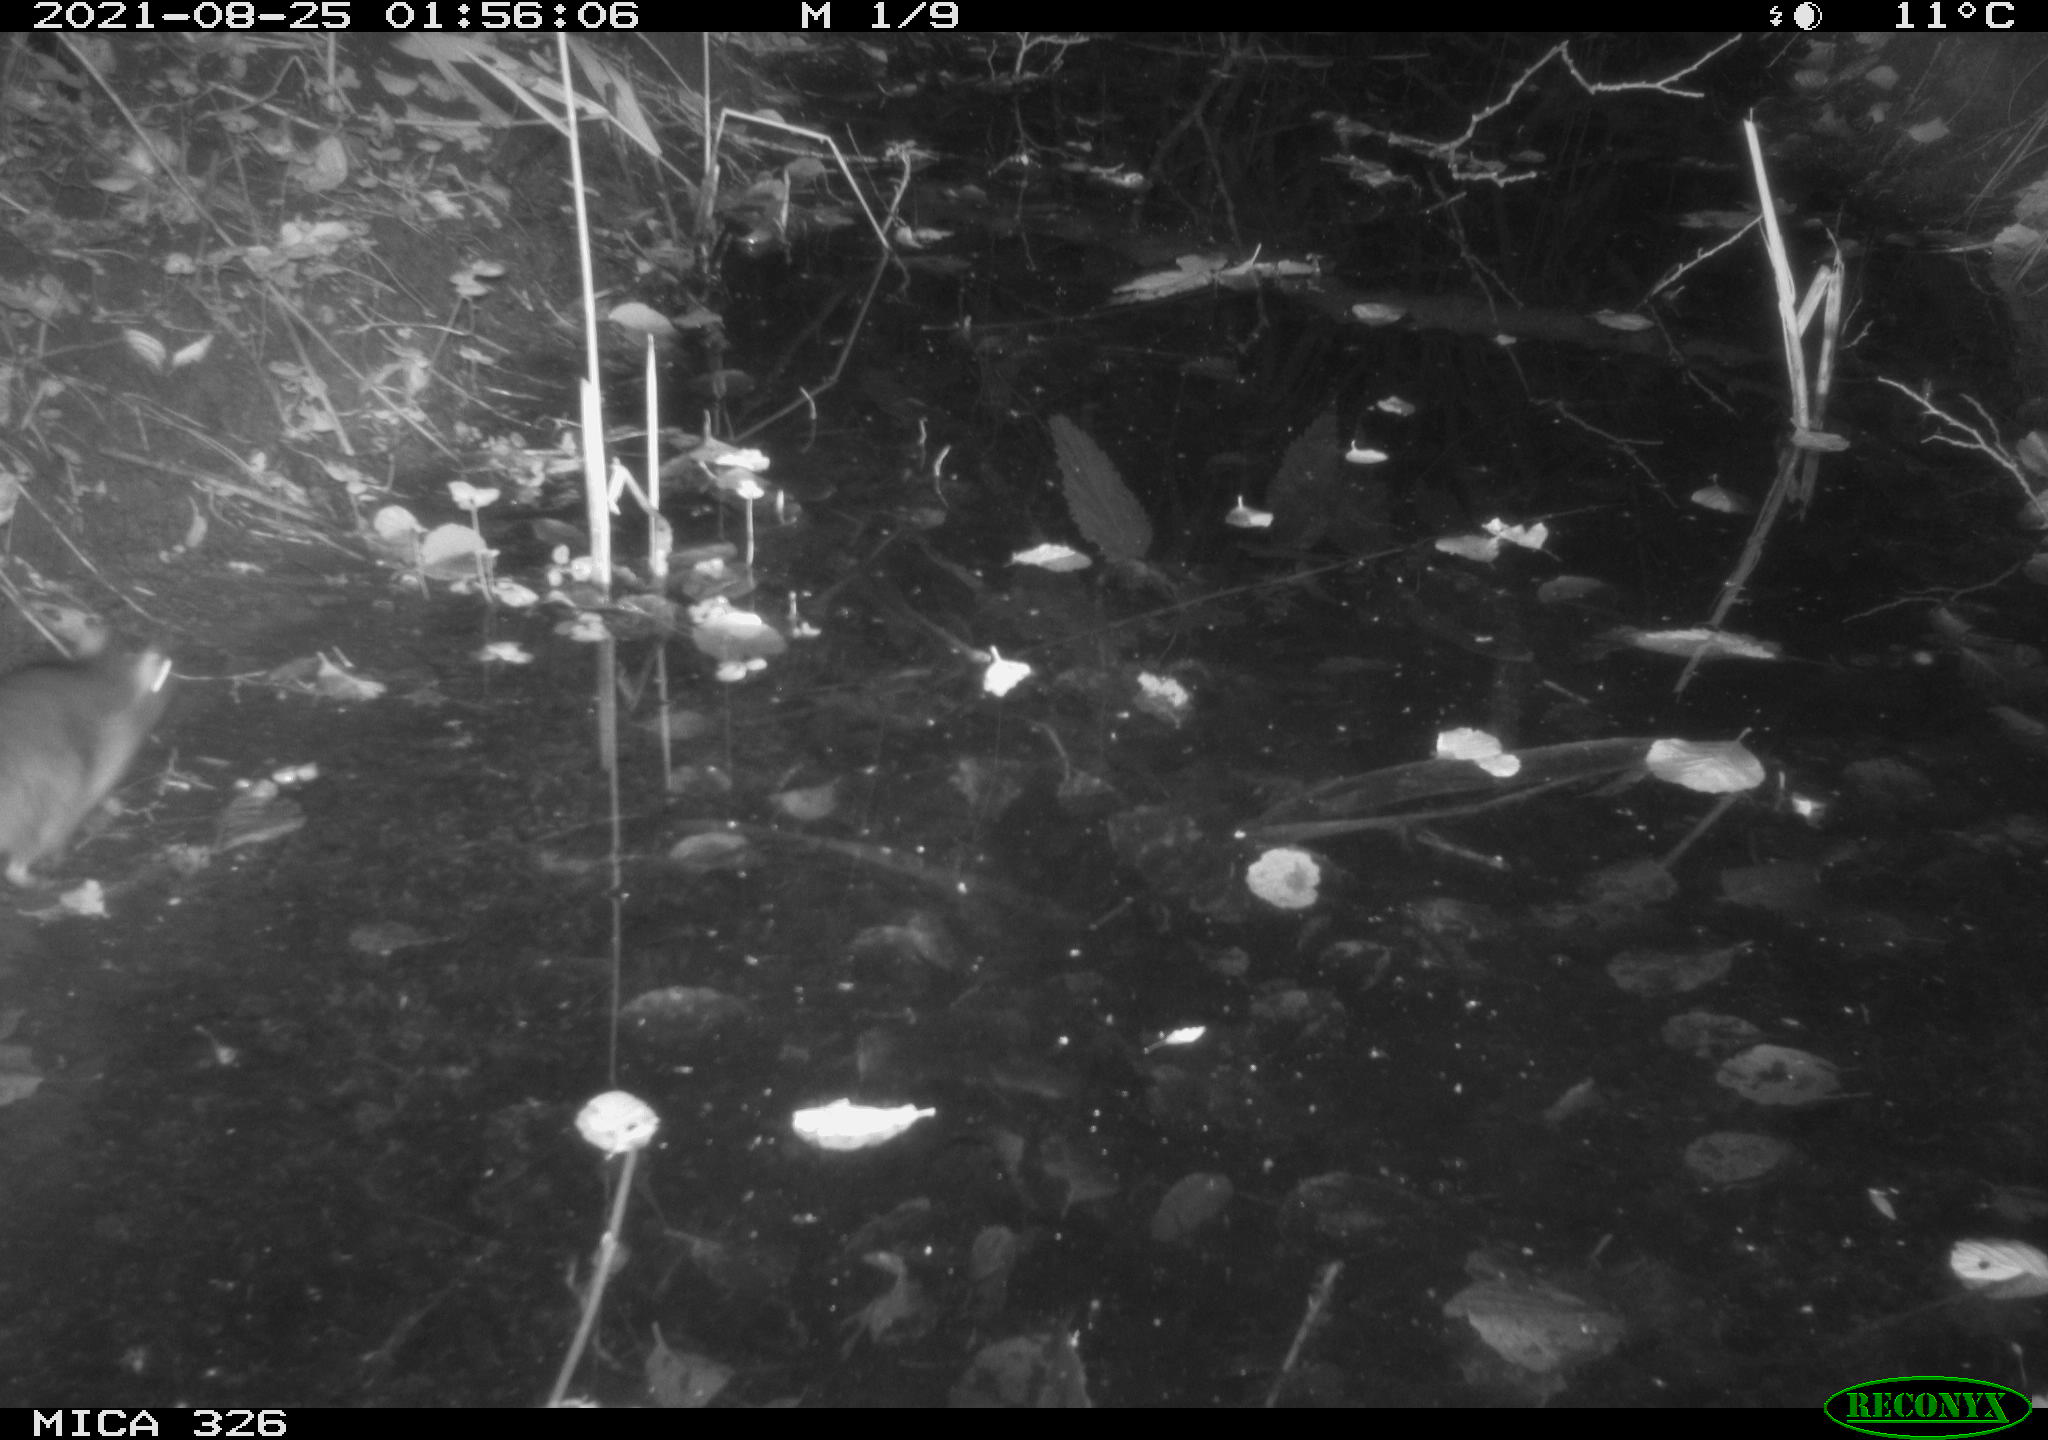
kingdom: Animalia
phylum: Chordata
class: Mammalia
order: Rodentia
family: Muridae
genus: Rattus
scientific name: Rattus norvegicus
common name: Brown rat
